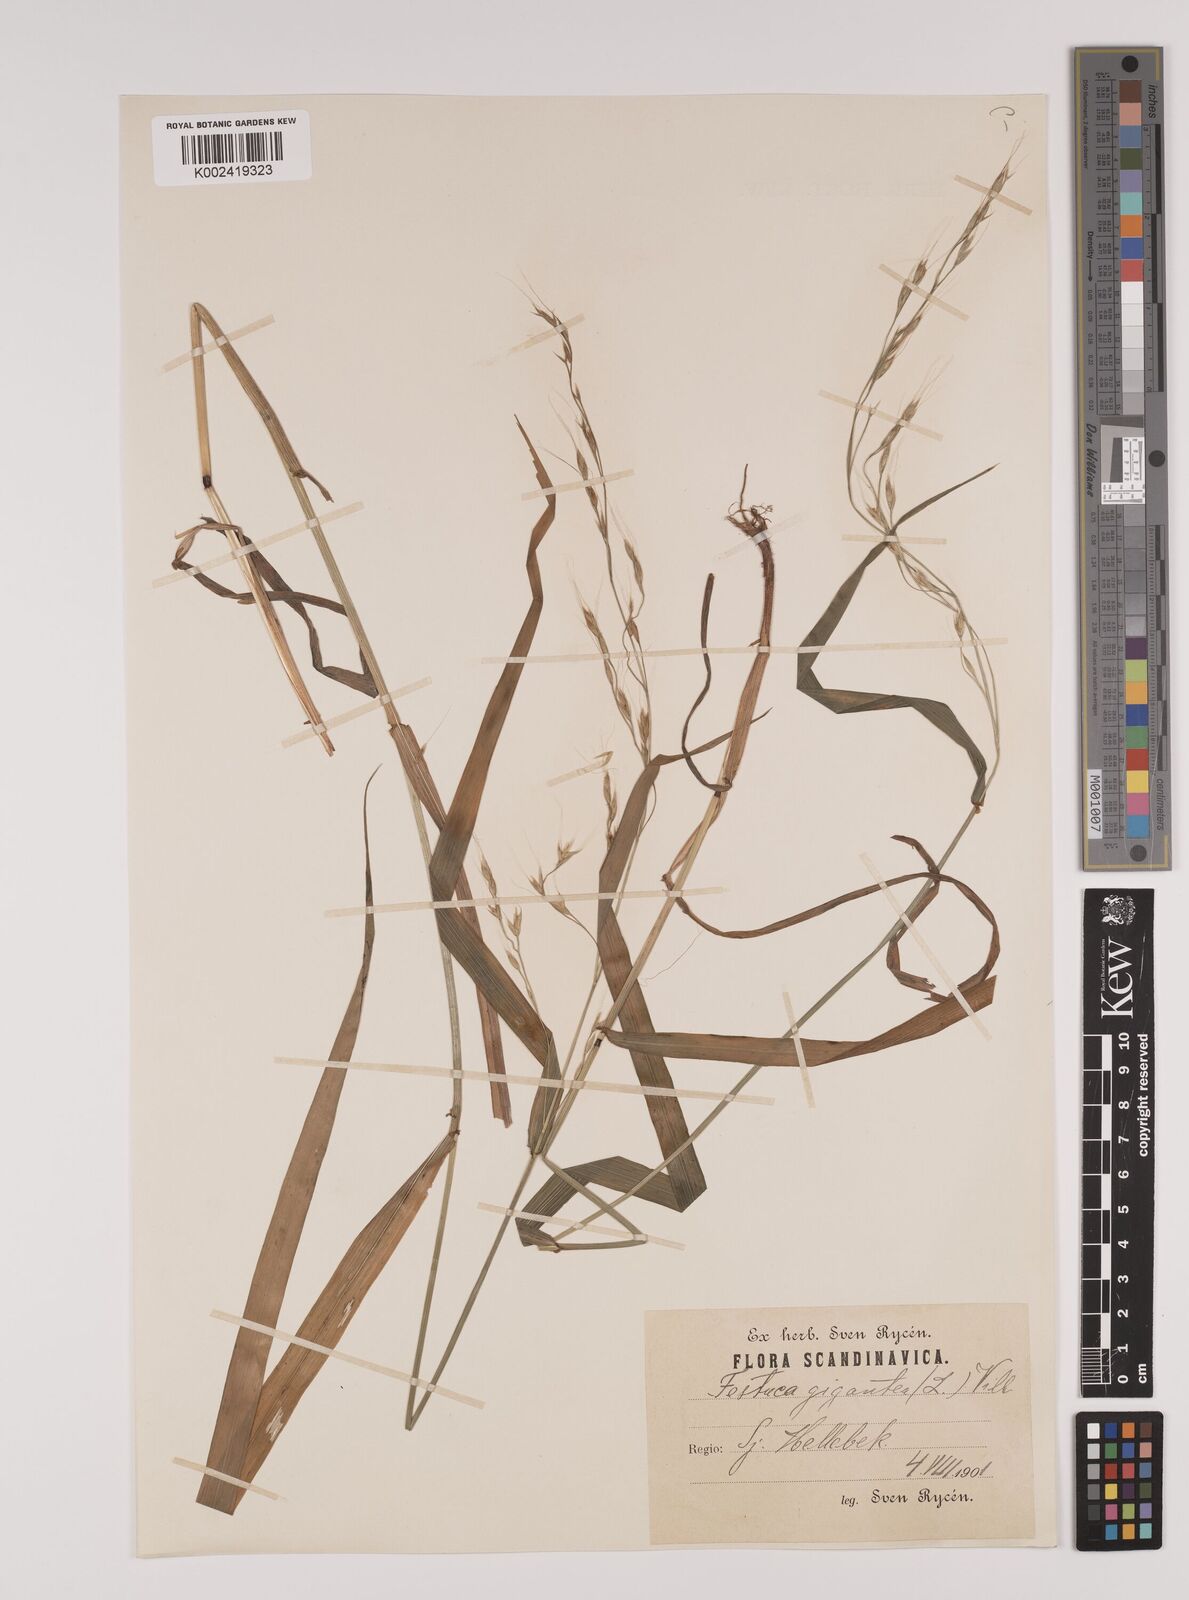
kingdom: Plantae
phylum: Tracheophyta
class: Liliopsida
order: Poales
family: Poaceae
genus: Lolium
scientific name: Lolium giganteum
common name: Giant fescue
